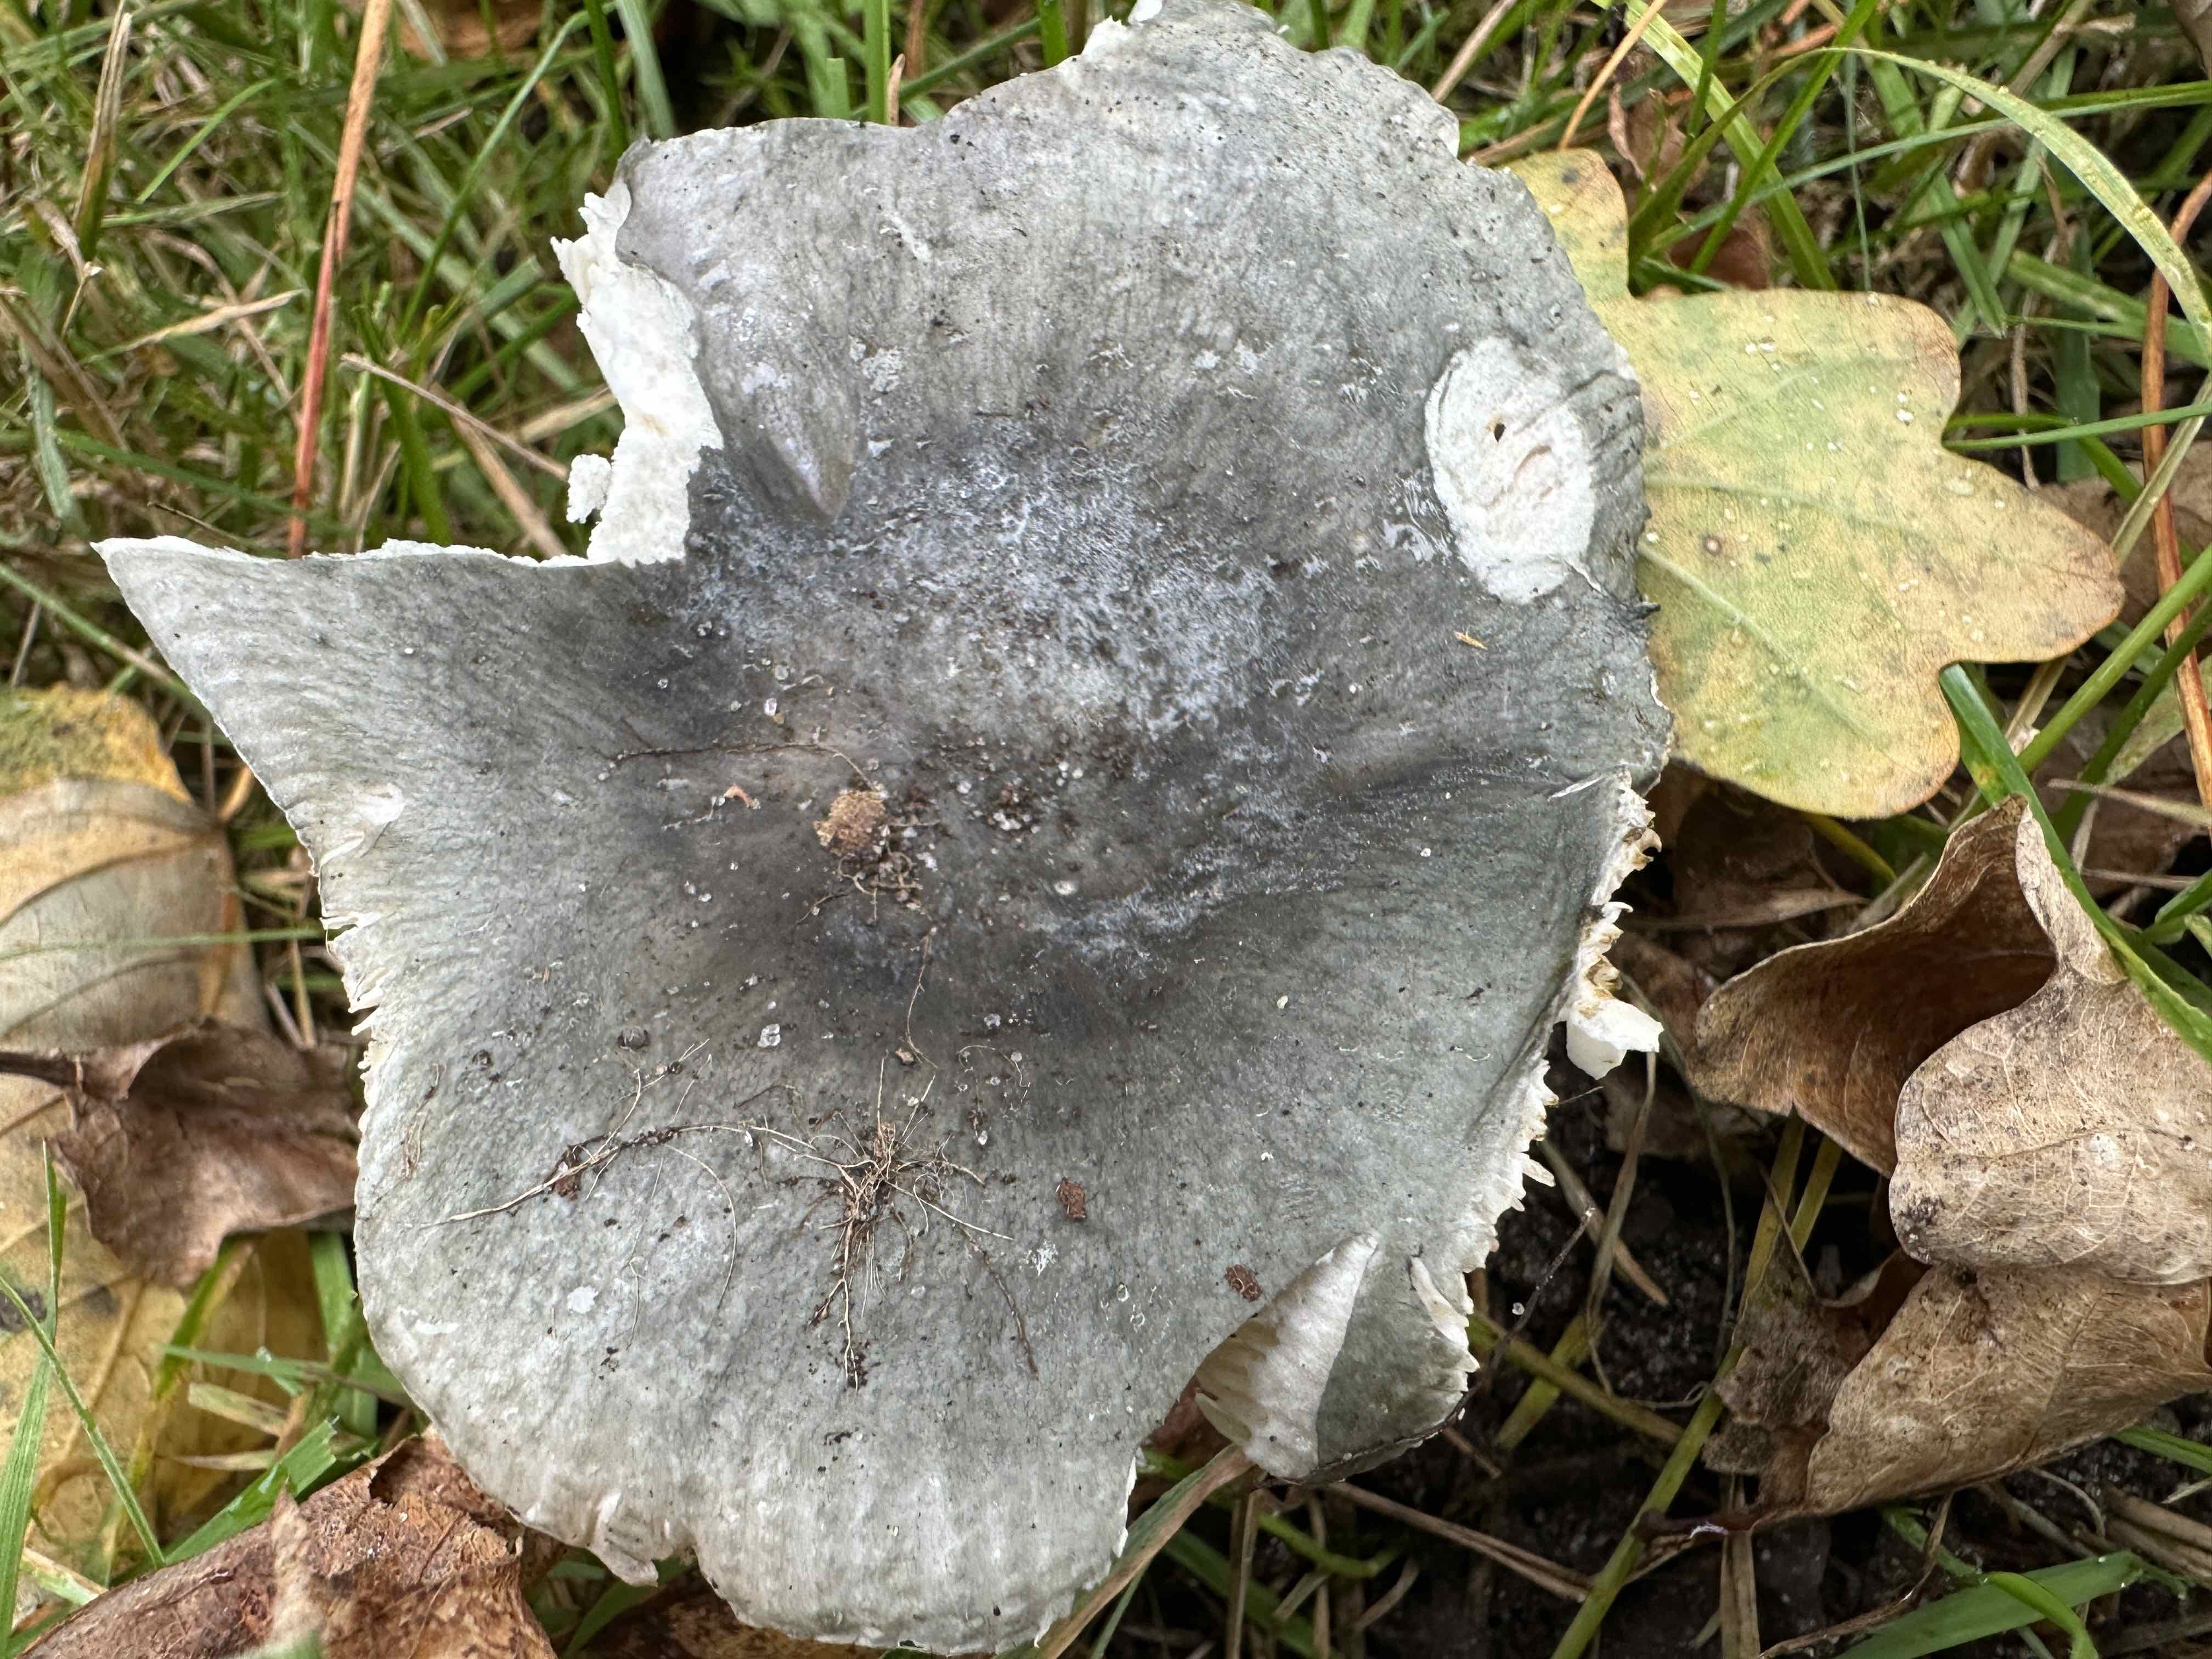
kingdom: Fungi
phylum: Basidiomycota
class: Agaricomycetes
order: Russulales
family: Russulaceae
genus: Russula
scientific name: Russula parazurea
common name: blågrå skørhat
